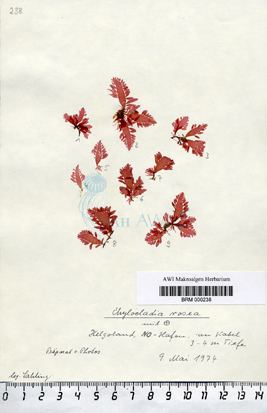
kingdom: Plantae
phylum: Rhodophyta
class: Florideophyceae
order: Rhodymeniales
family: Lomentariaceae
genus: Lomentaria
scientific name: Lomentaria orcadensis
